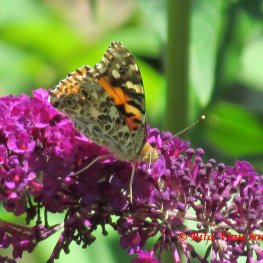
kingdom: Animalia
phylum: Arthropoda
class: Insecta
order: Lepidoptera
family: Nymphalidae
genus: Vanessa
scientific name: Vanessa cardui
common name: Painted Lady
